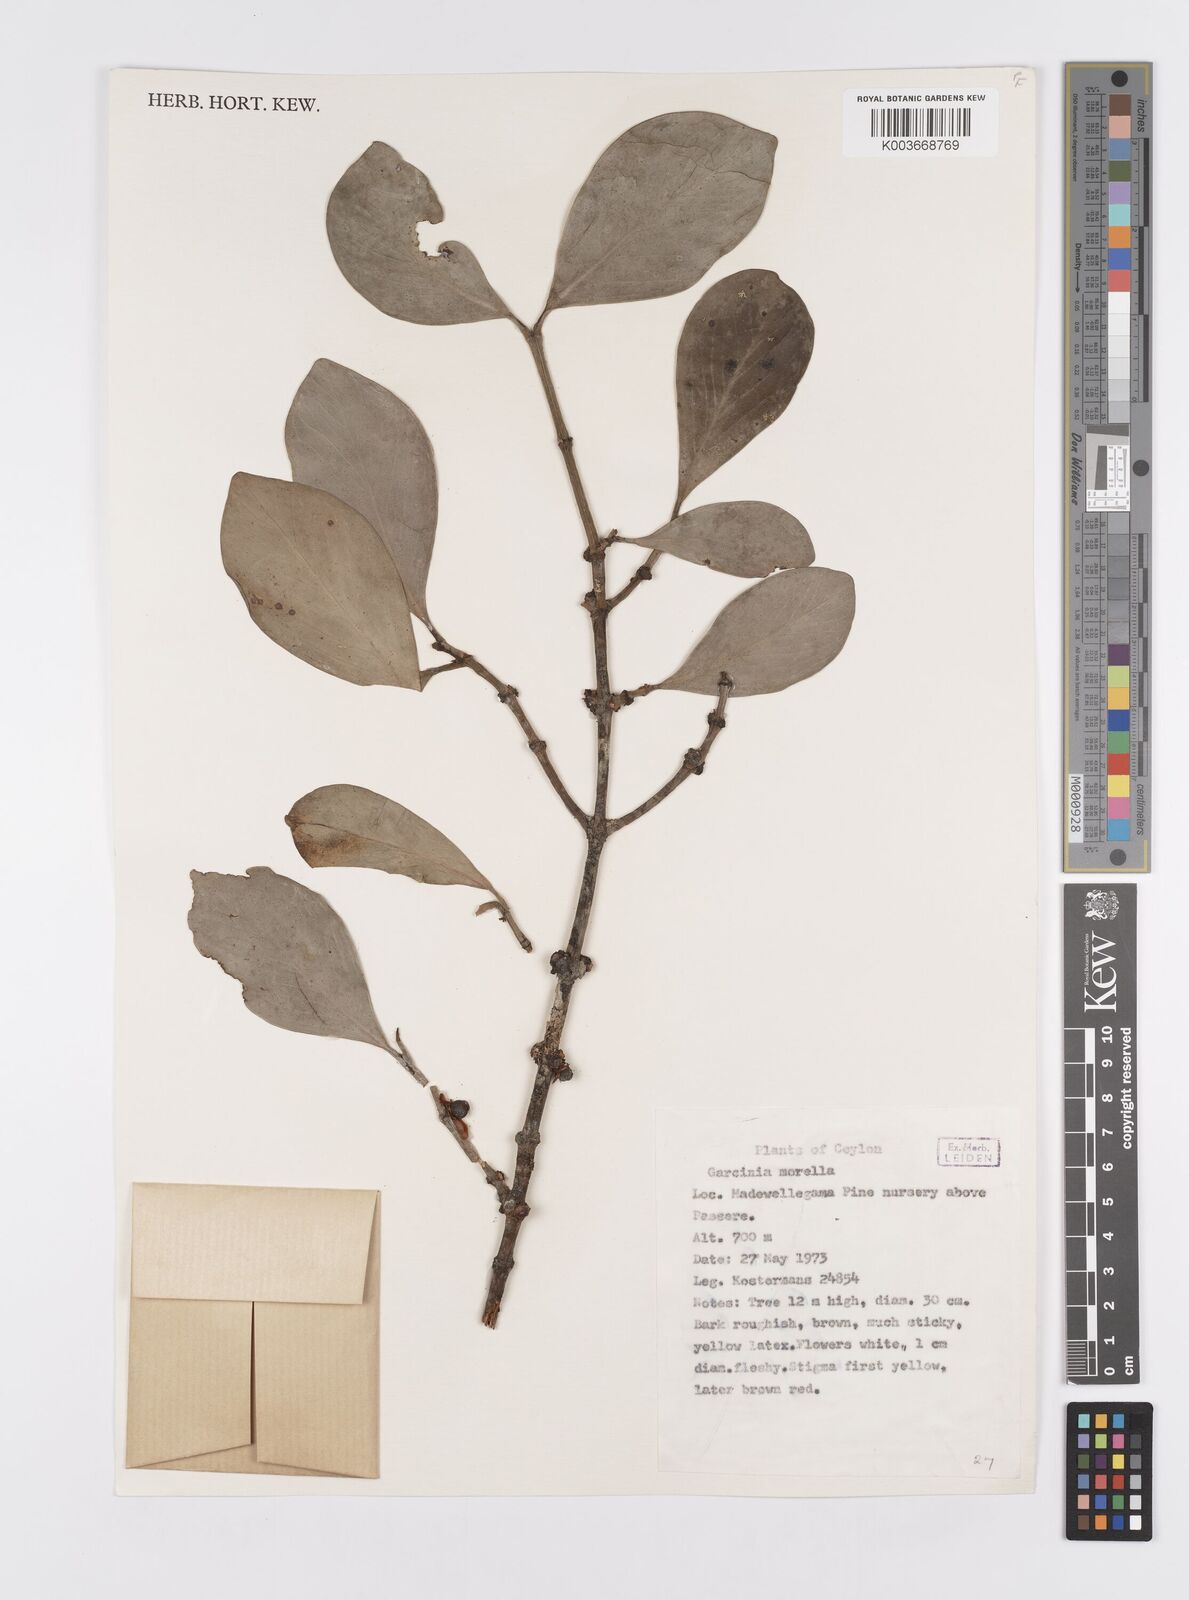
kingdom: Plantae
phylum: Tracheophyta
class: Magnoliopsida
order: Malpighiales
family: Clusiaceae
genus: Garcinia
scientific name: Garcinia morella
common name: Indian gamboge-tree
